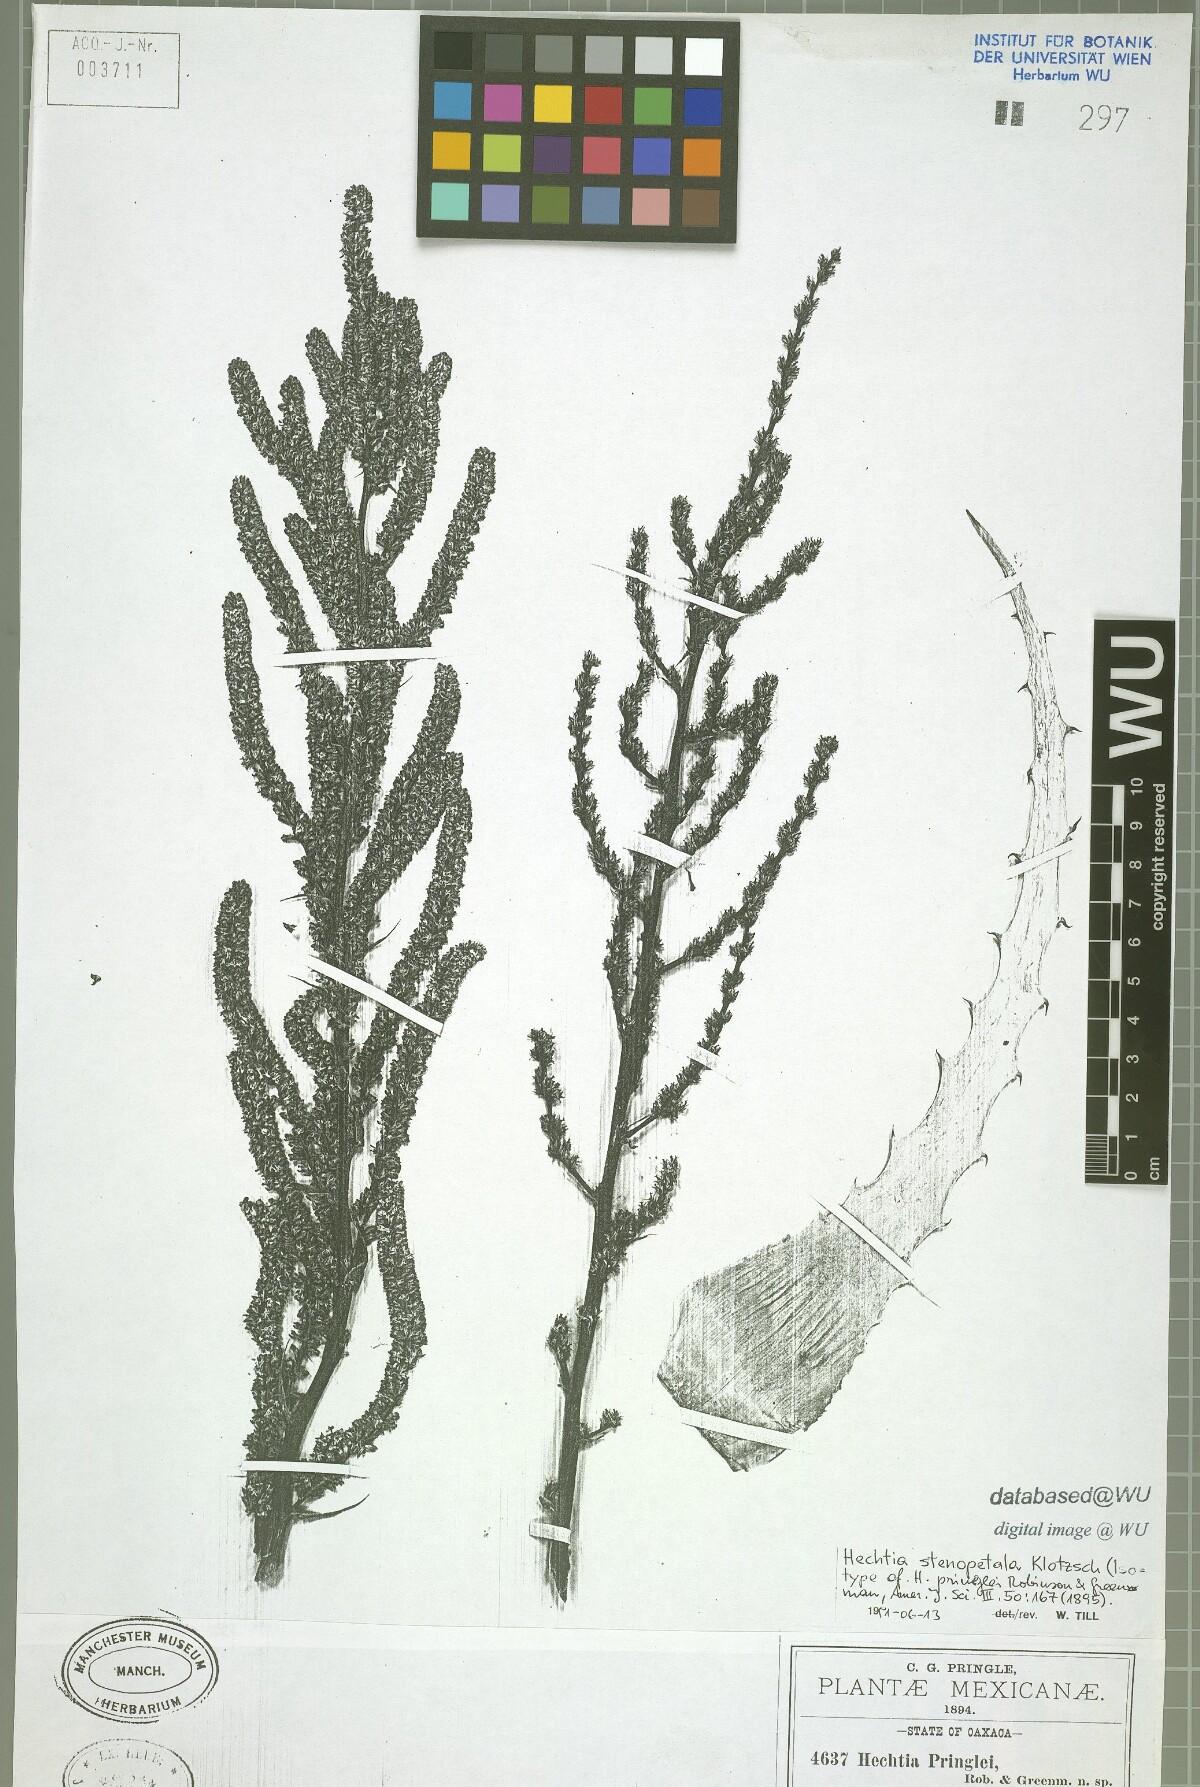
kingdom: Plantae
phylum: Tracheophyta
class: Liliopsida
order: Poales
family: Bromeliaceae
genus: Hechtia
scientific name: Hechtia pringlei
